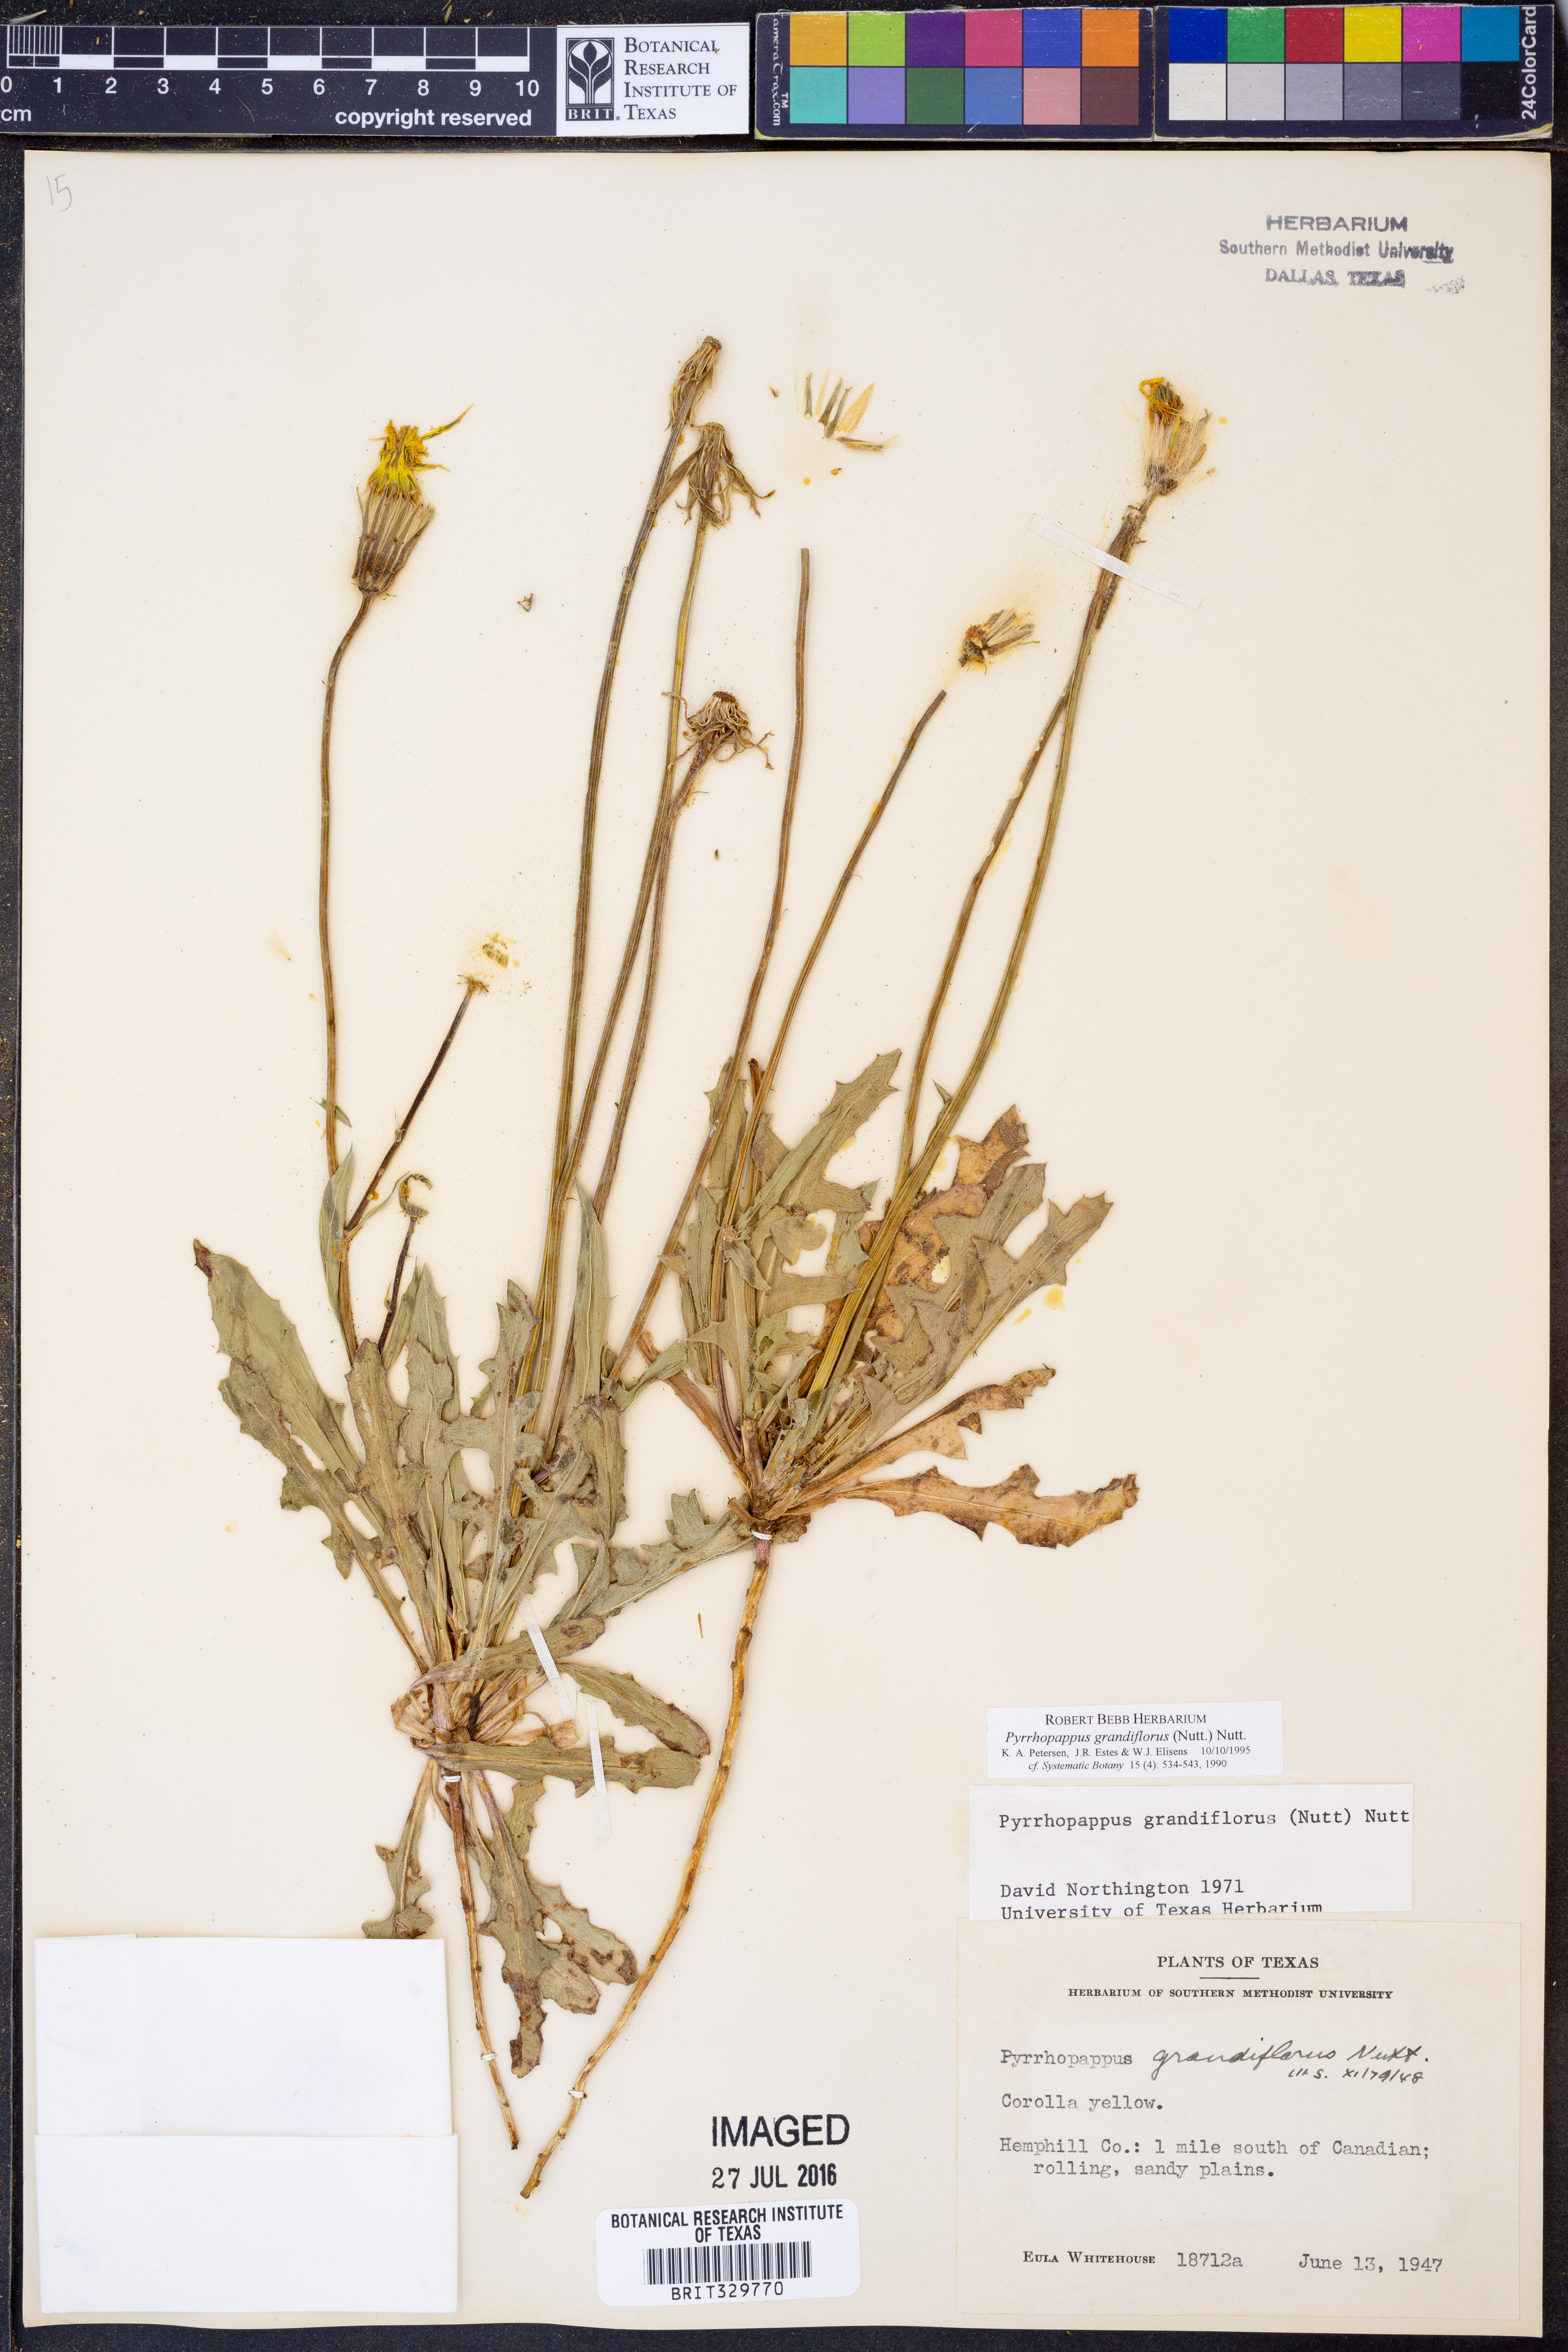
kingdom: Plantae
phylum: Tracheophyta
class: Magnoliopsida
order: Asterales
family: Asteraceae
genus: Pyrrhopappus
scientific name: Pyrrhopappus grandiflorus
